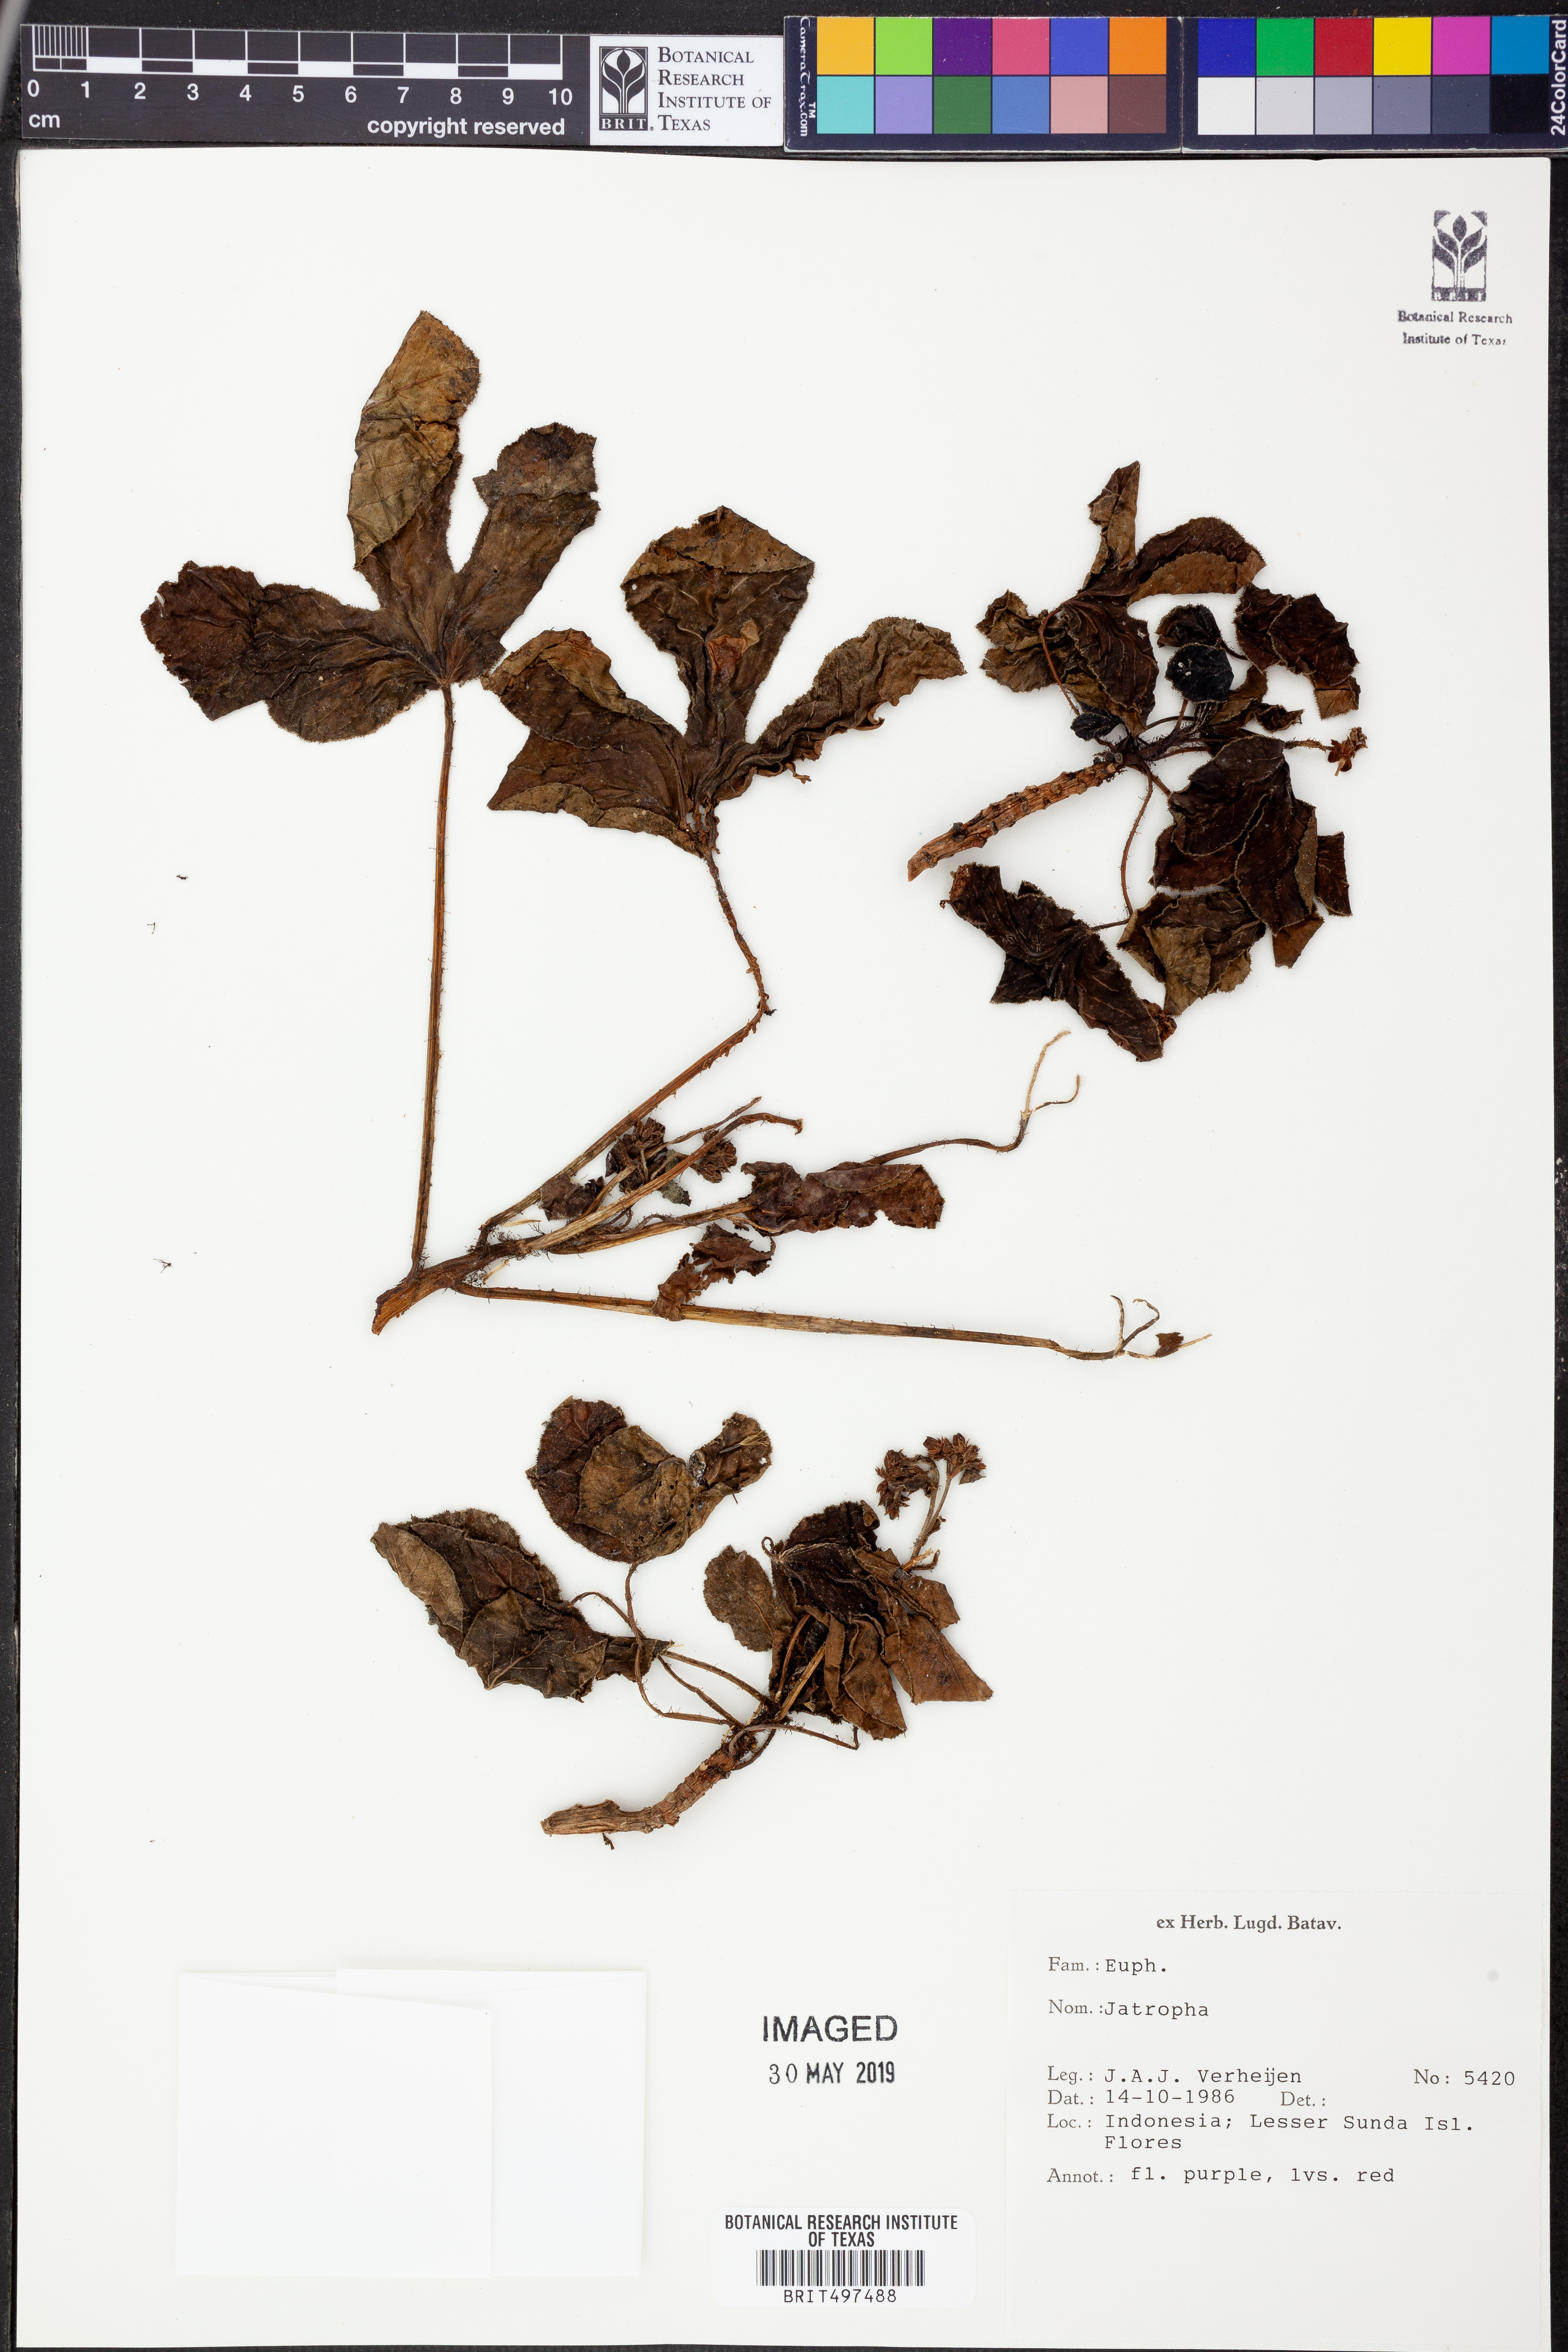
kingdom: Plantae
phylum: Tracheophyta
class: Magnoliopsida
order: Malpighiales
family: Euphorbiaceae
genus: Jatropha
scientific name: Jatropha
